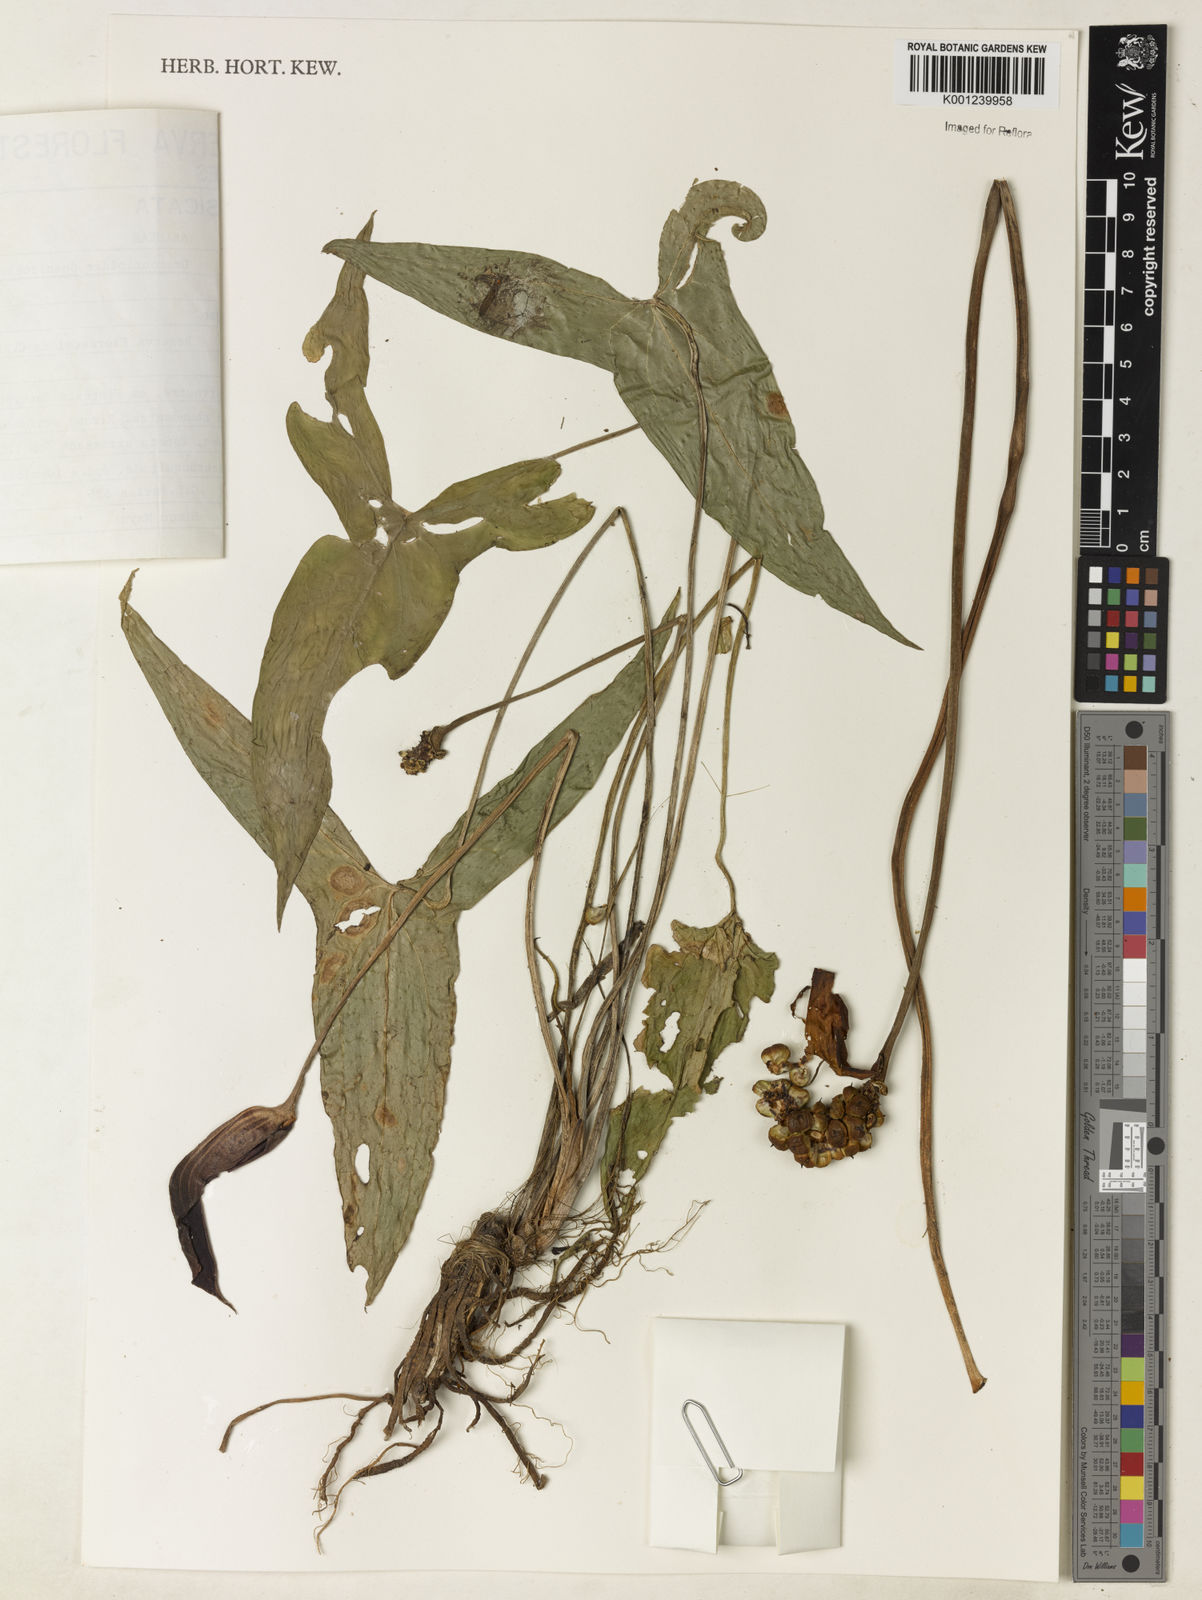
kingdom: Plantae
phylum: Tracheophyta
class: Liliopsida
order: Alismatales
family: Araceae
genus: Dracontioides
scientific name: Dracontioides
